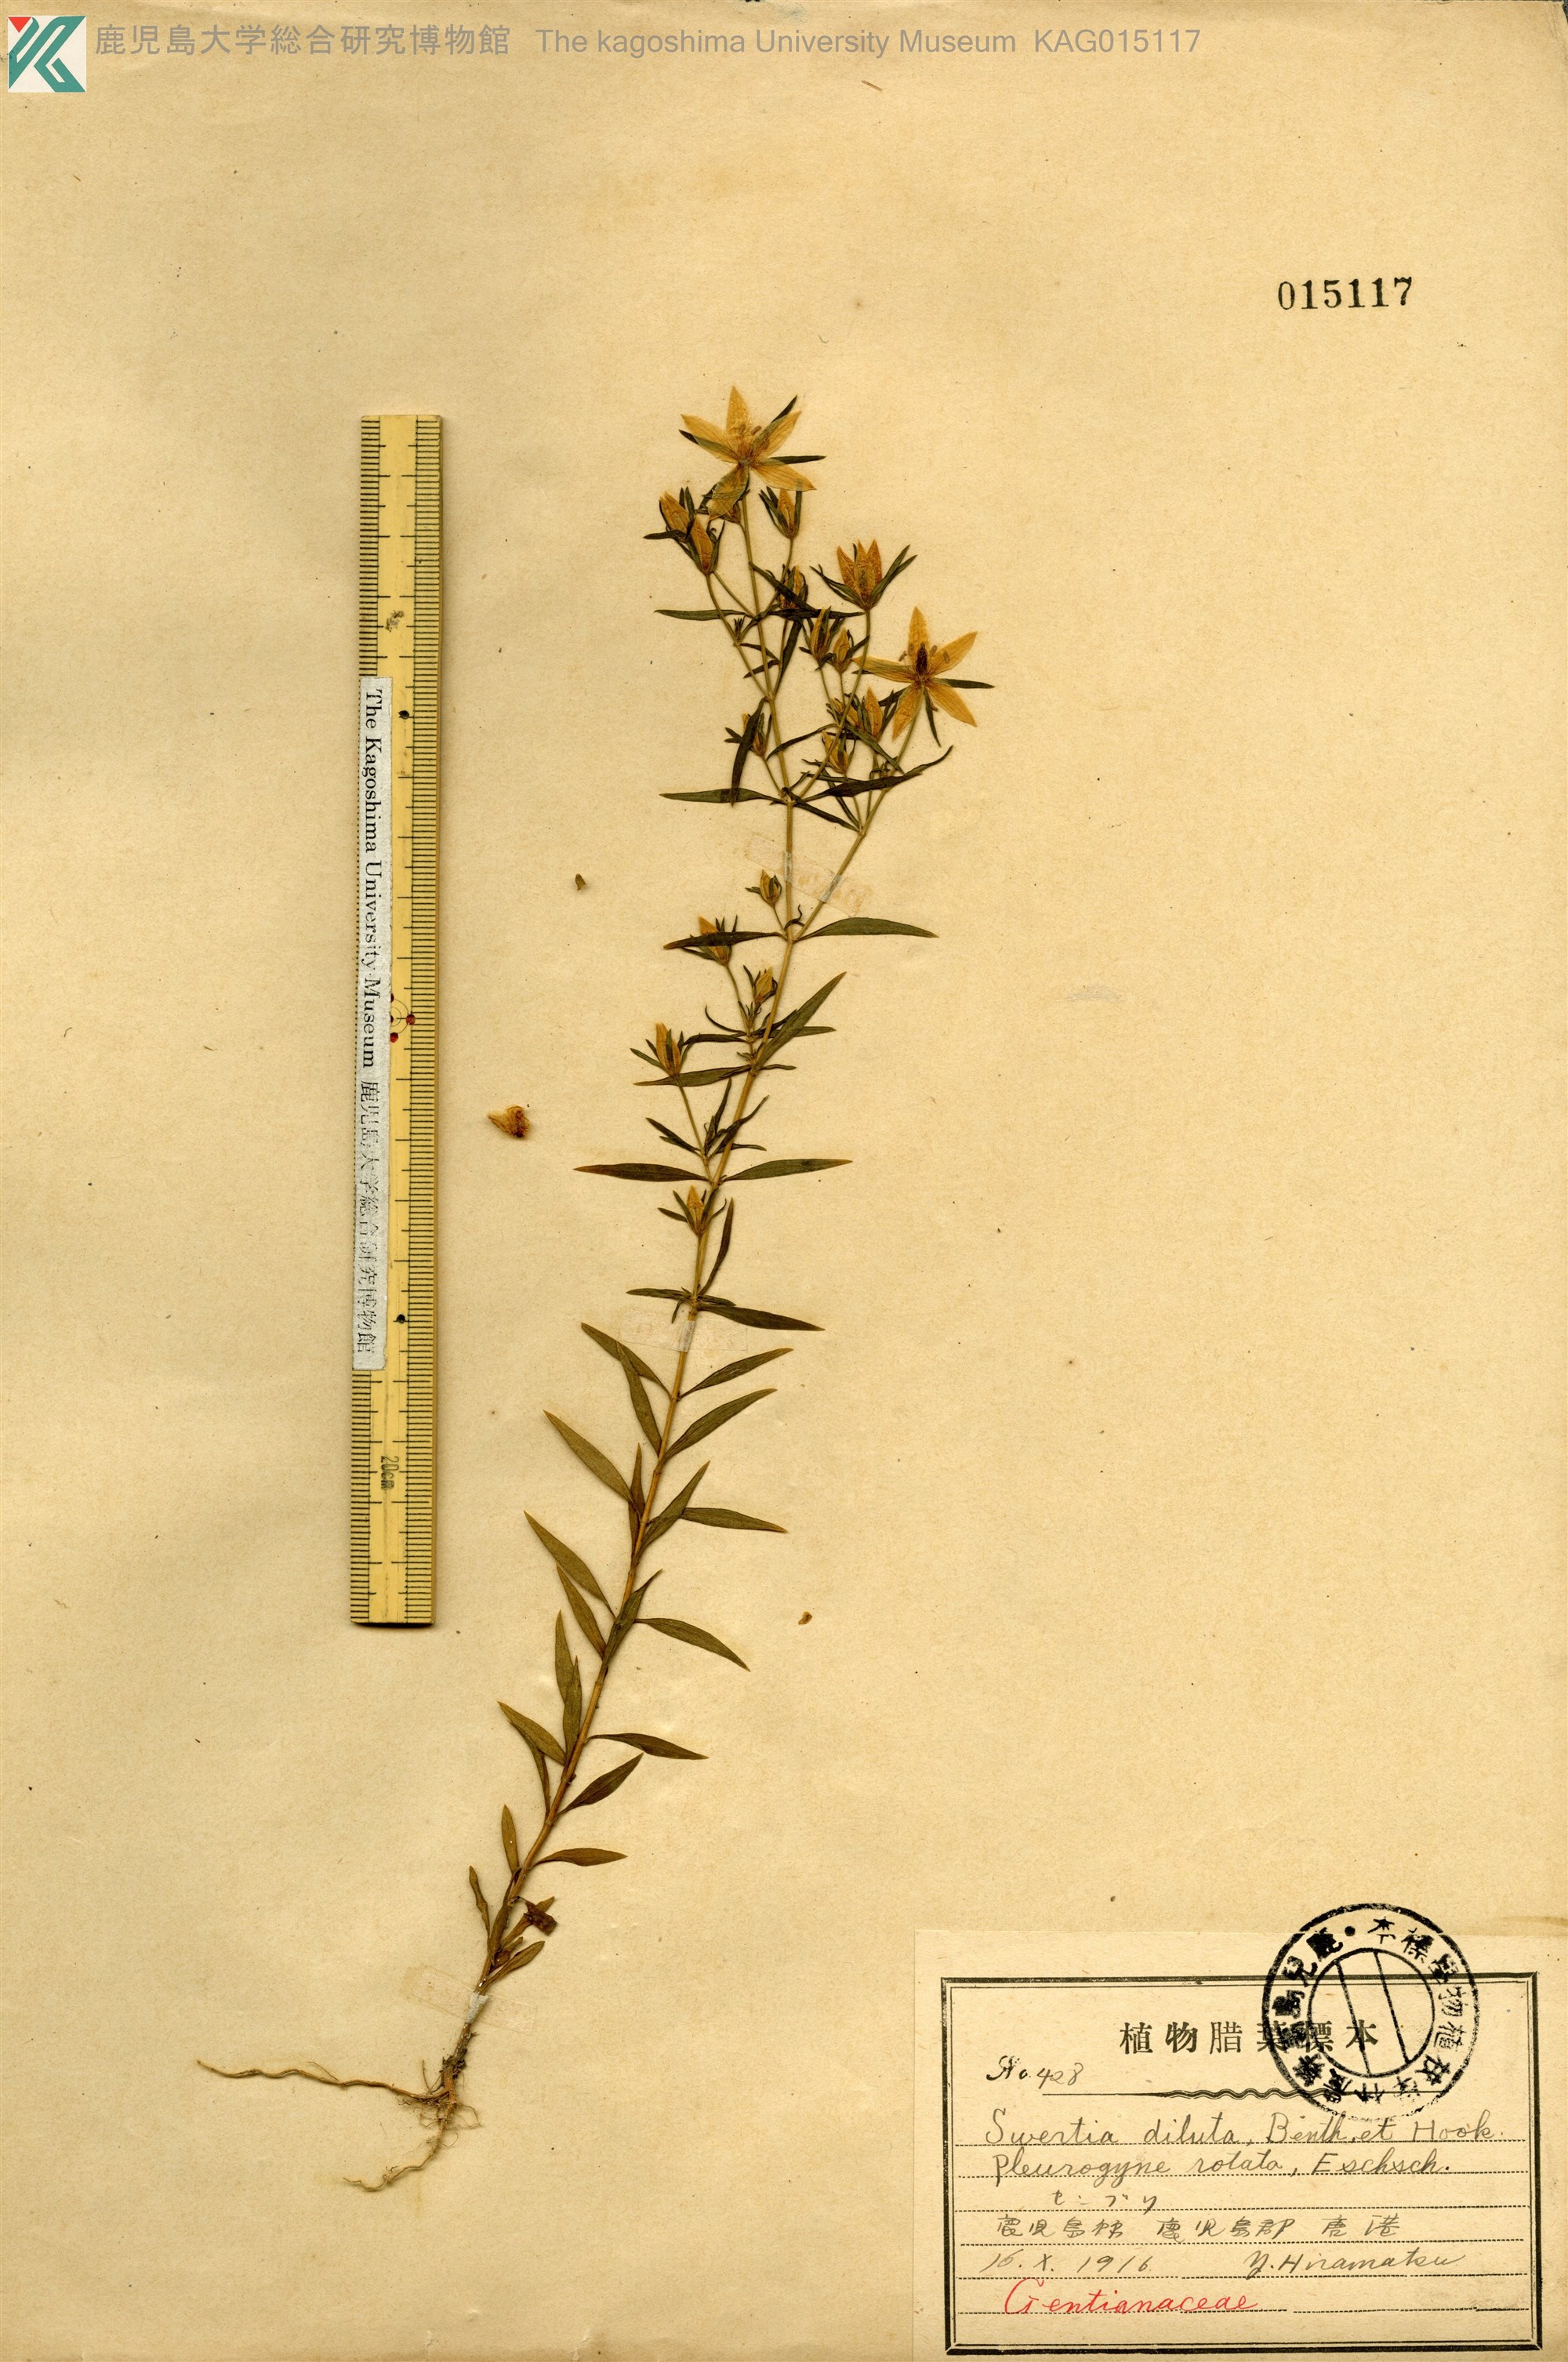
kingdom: Plantae
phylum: Tracheophyta
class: Magnoliopsida
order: Gentianales
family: Gentianaceae
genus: Swertia
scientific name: Swertia pseudochinensis
